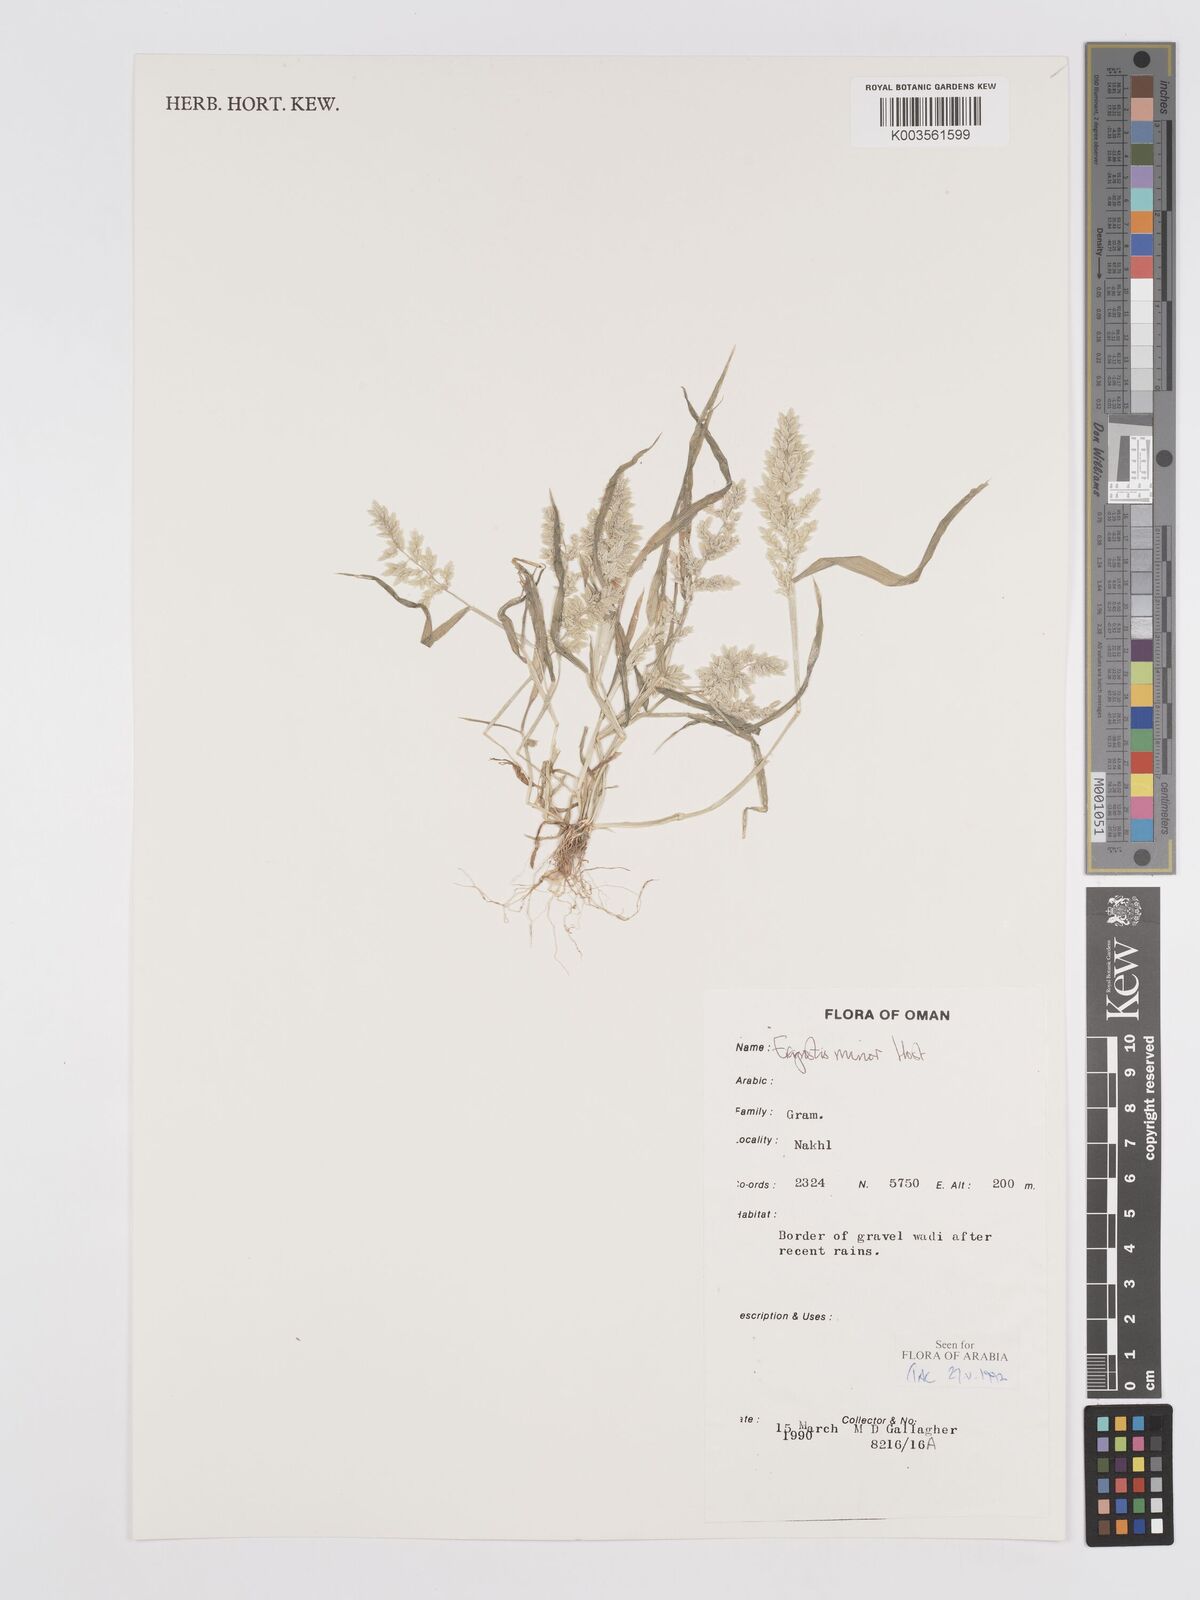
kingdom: Plantae
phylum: Tracheophyta
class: Liliopsida
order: Poales
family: Poaceae
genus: Eragrostis
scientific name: Eragrostis minor
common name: Small love-grass
